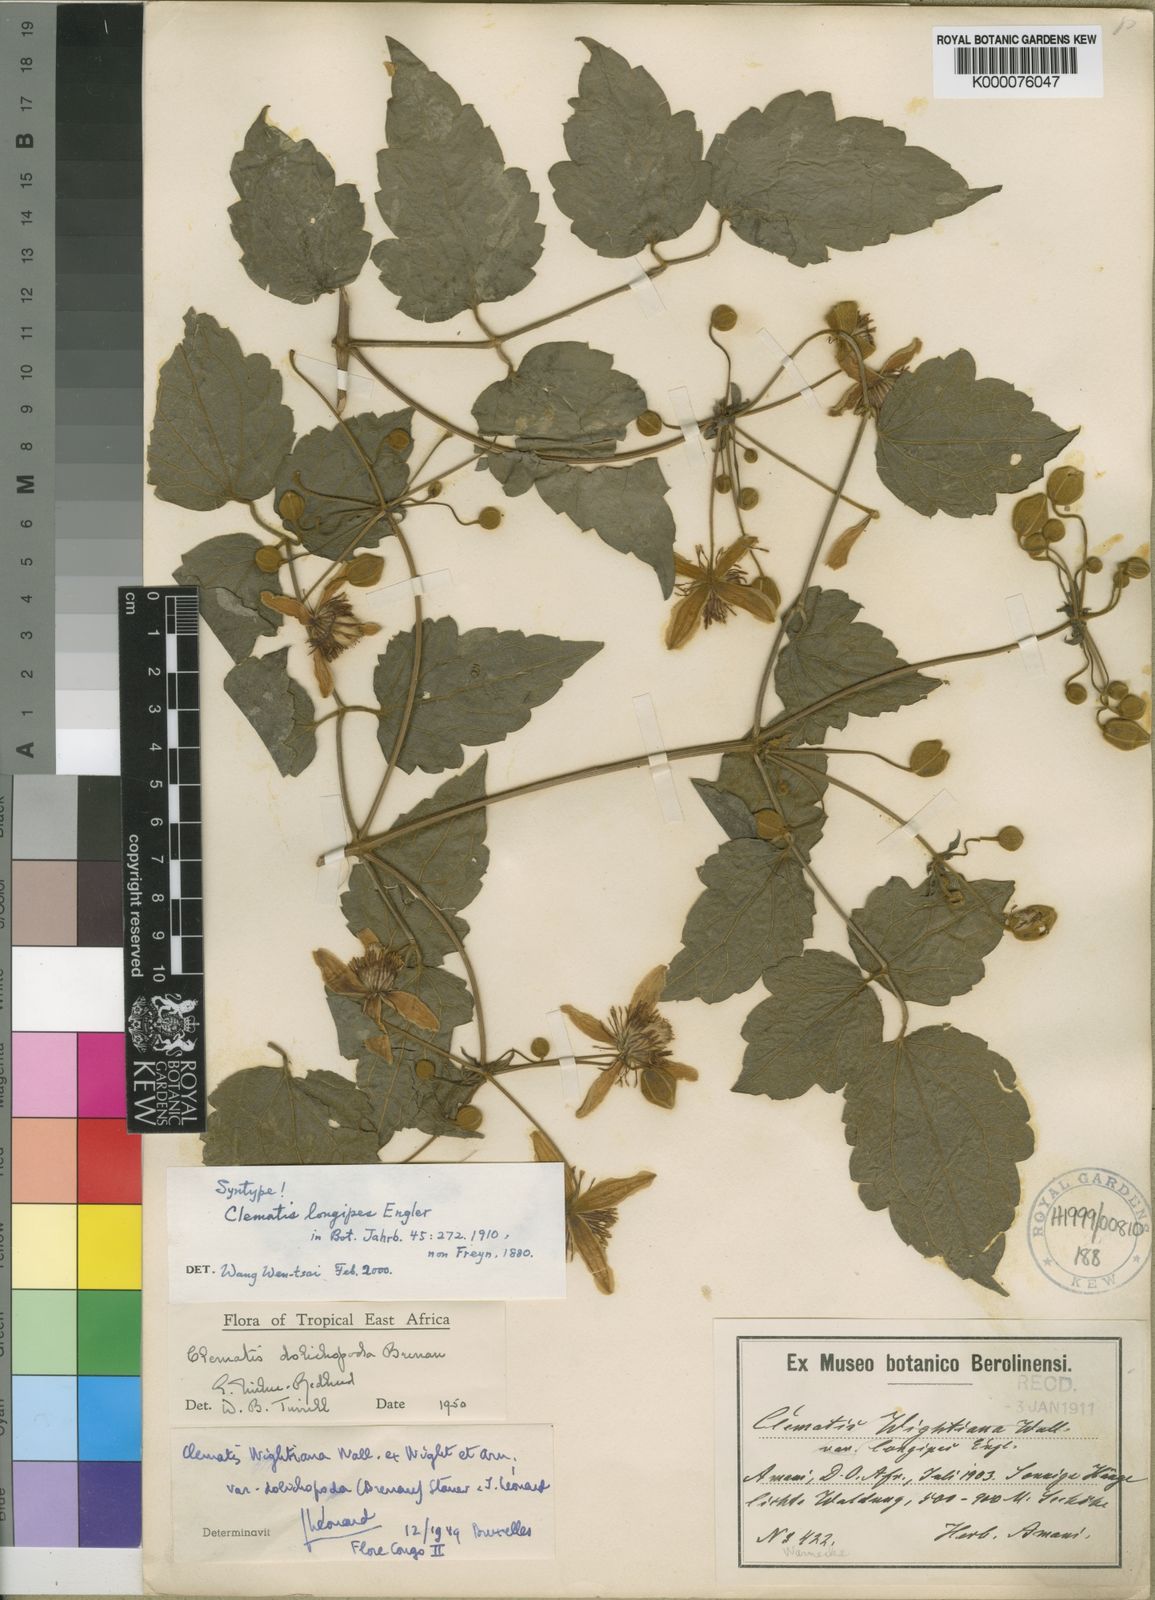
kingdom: Plantae
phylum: Tracheophyta
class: Magnoliopsida
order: Ranunculales
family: Ranunculaceae
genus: Clematis
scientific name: Clematis hirsuta
